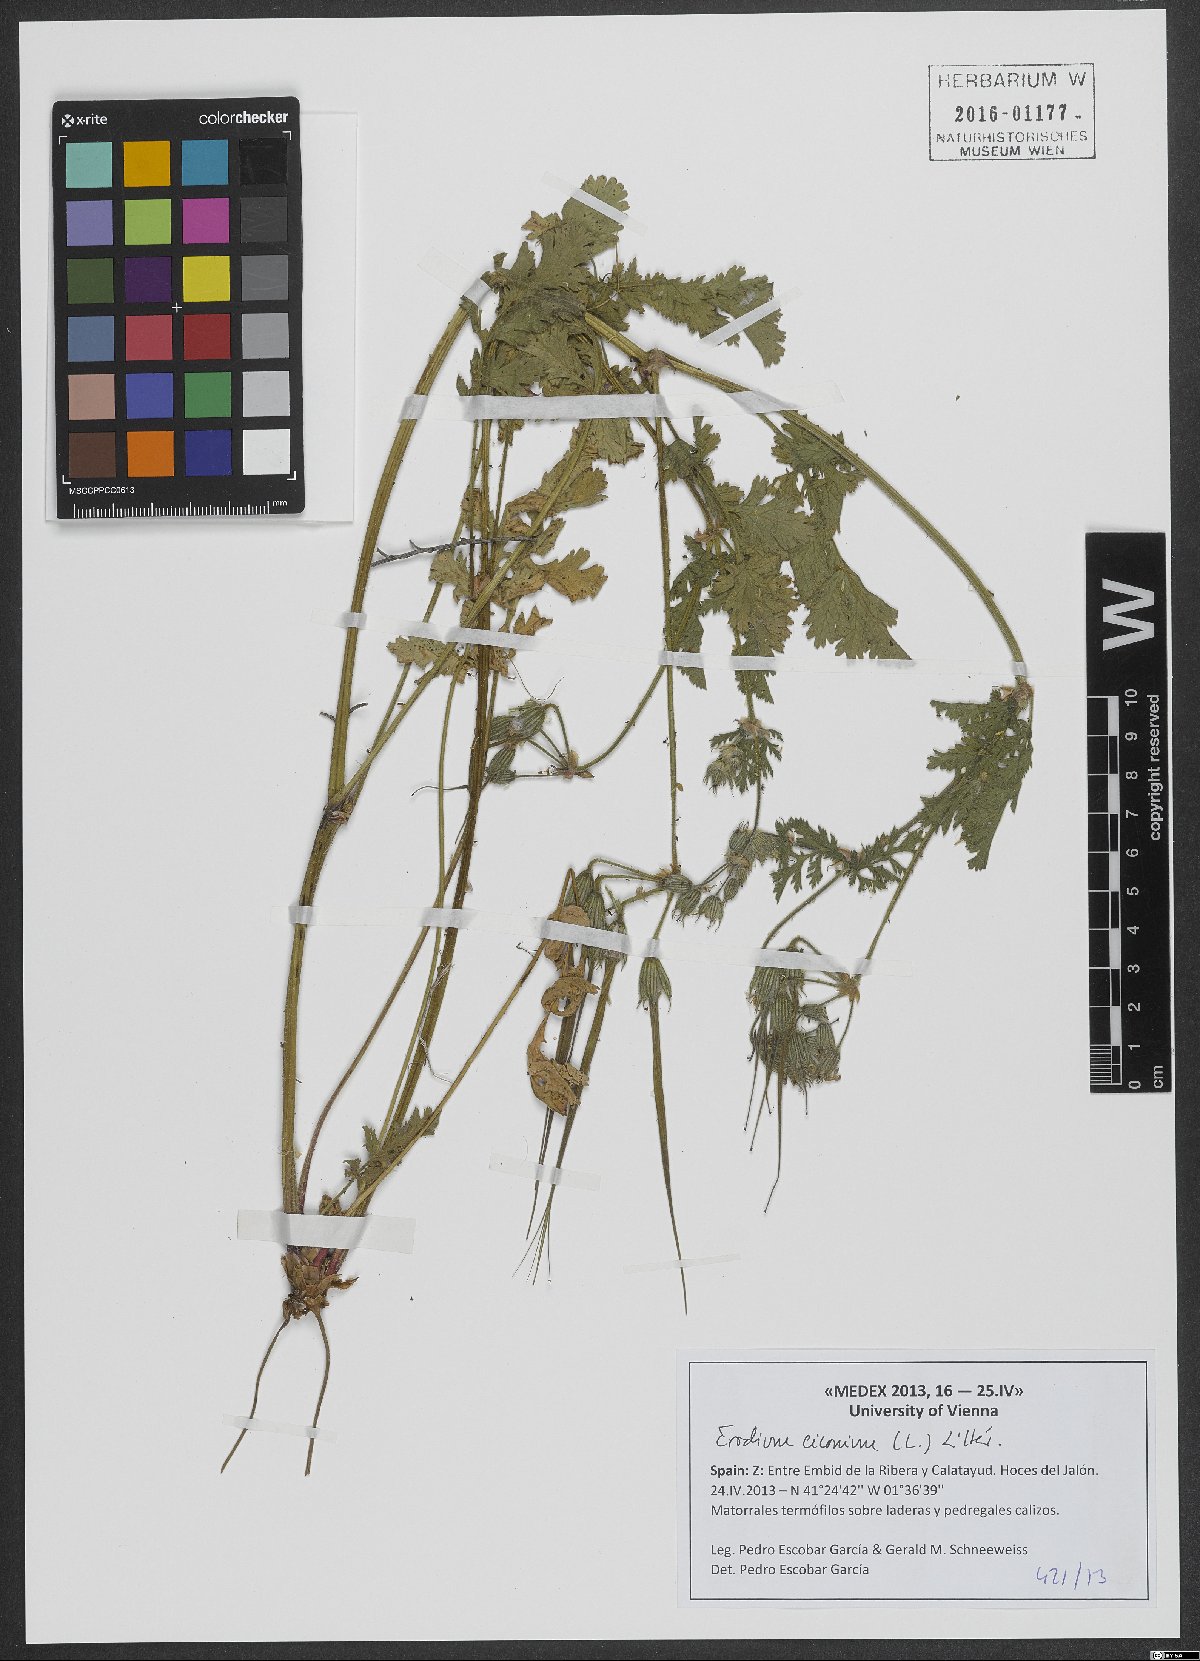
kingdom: Plantae
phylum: Tracheophyta
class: Magnoliopsida
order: Geraniales
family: Geraniaceae
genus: Erodium
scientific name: Erodium ciconium
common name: Common stork's bill
